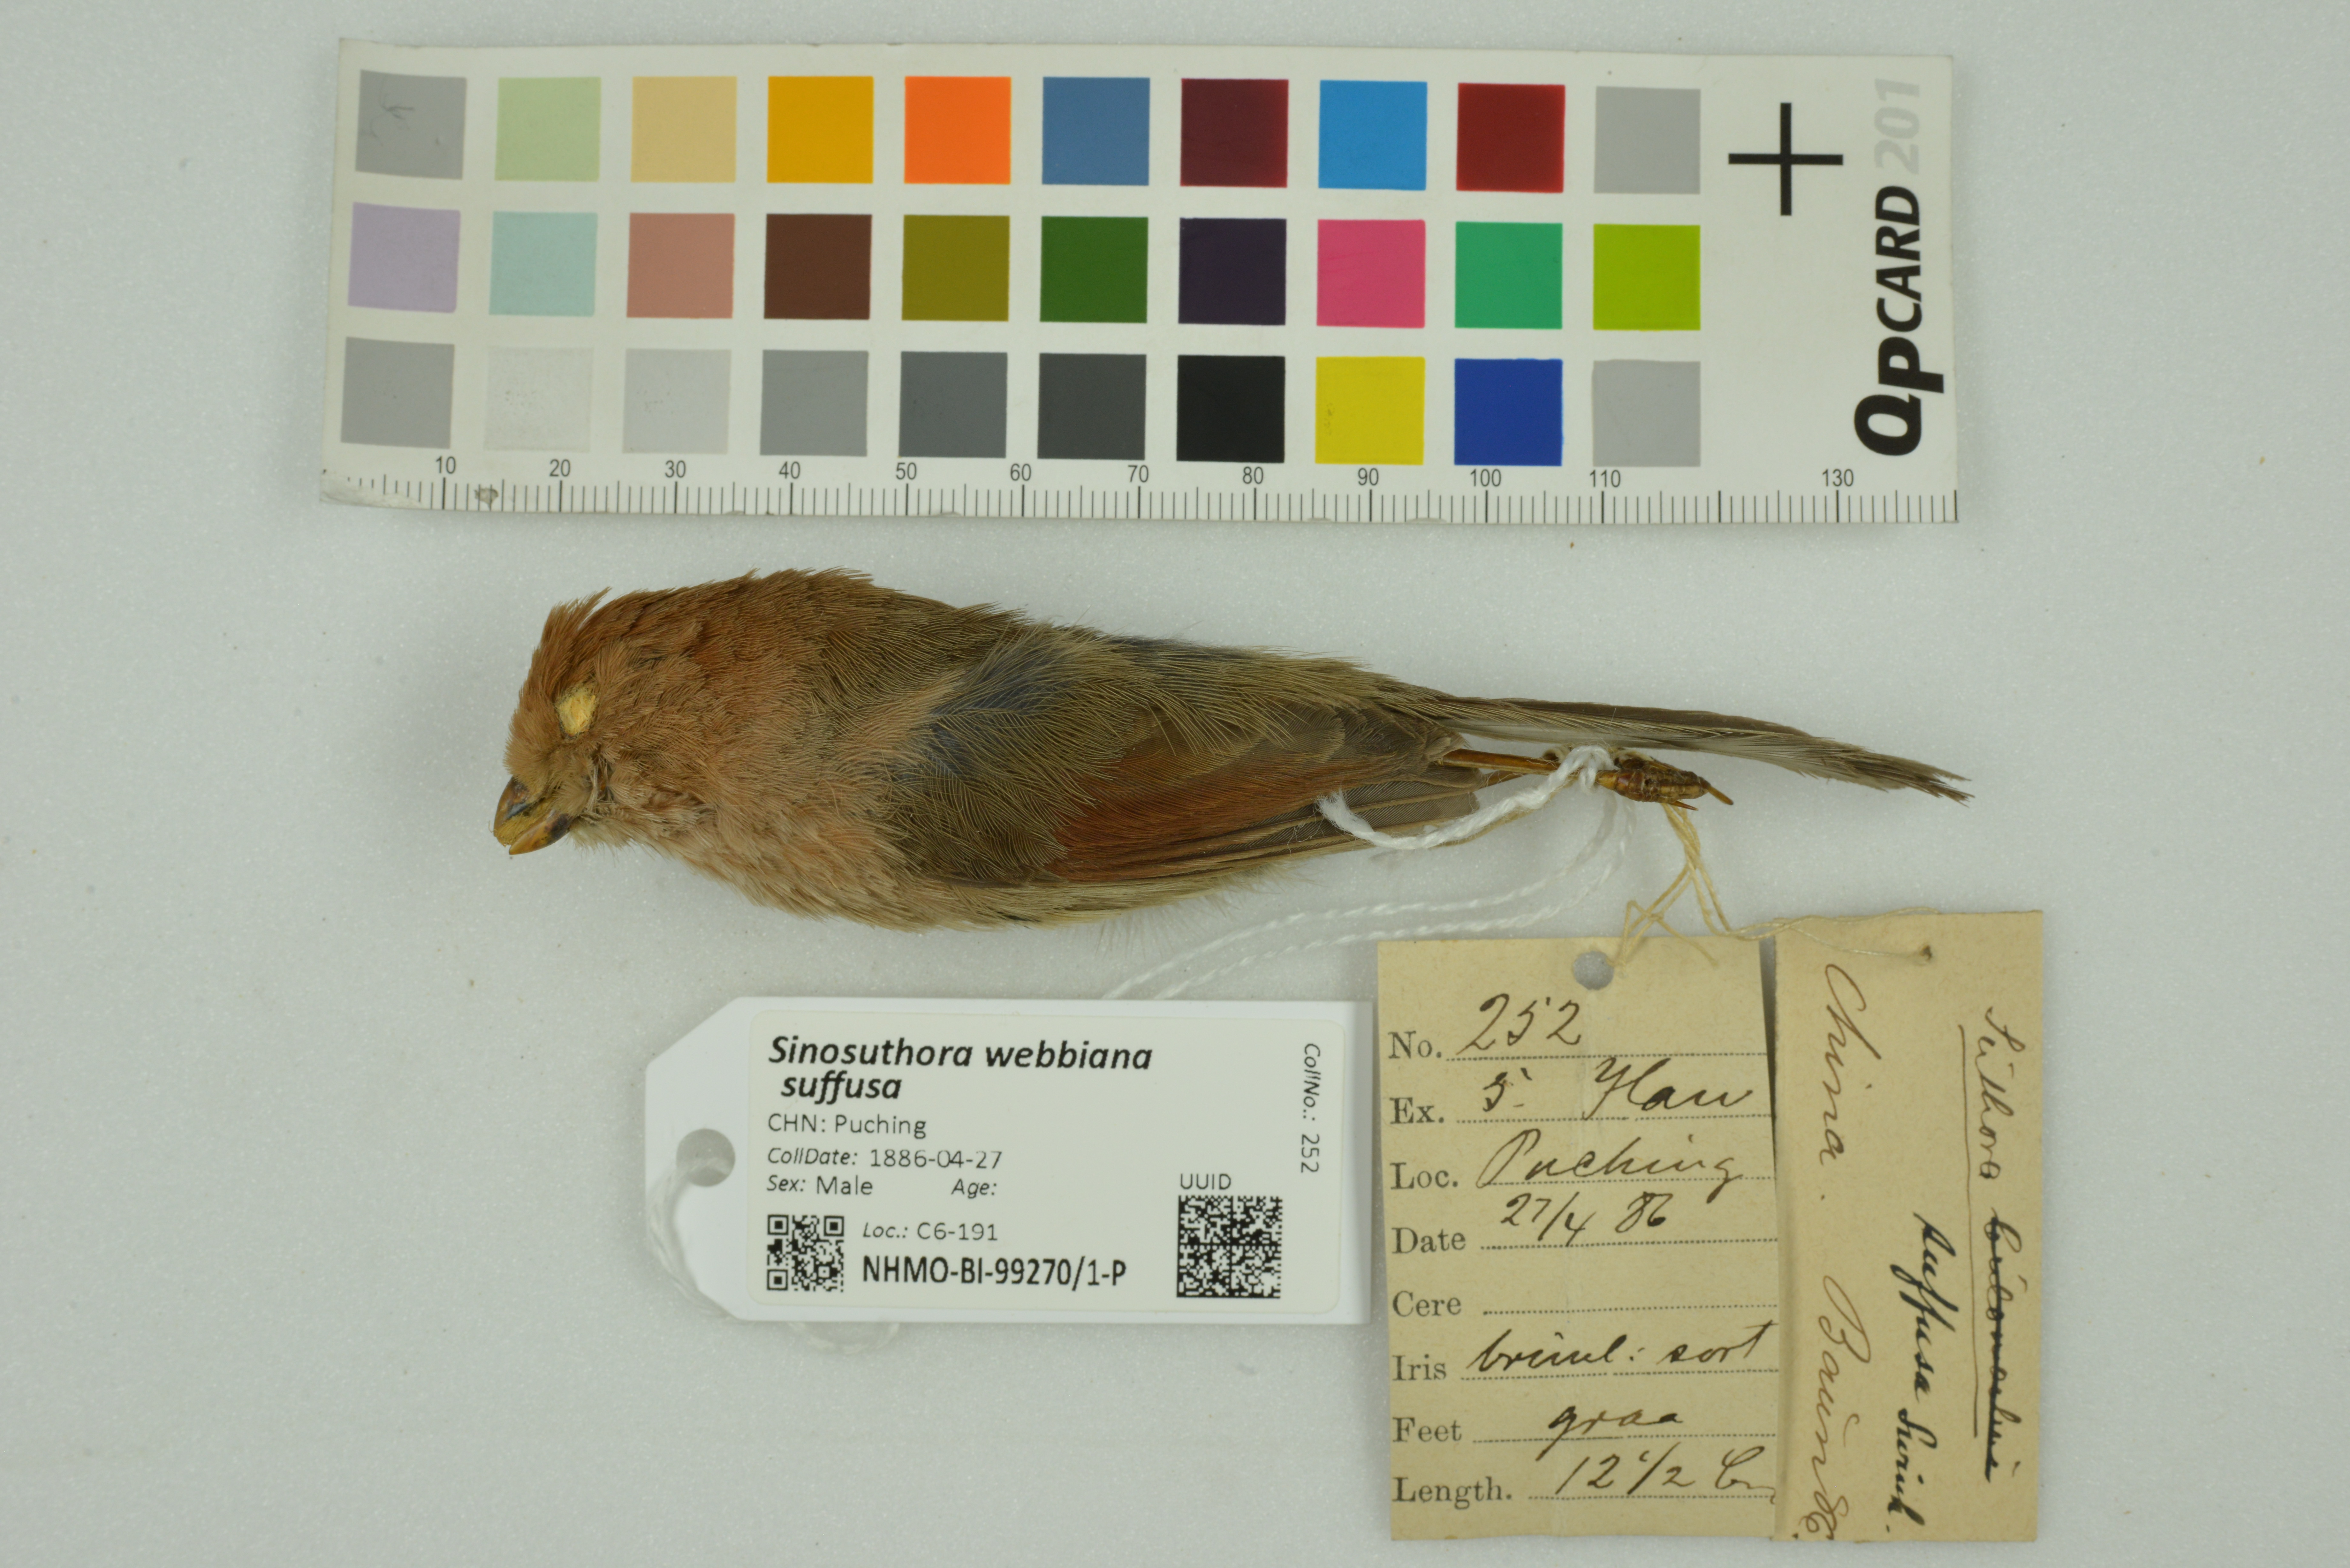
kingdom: Animalia
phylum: Chordata
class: Aves
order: Passeriformes
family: Sylviidae
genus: Sinosuthora
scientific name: Sinosuthora webbiana
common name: Vinous-throated parrotbill
